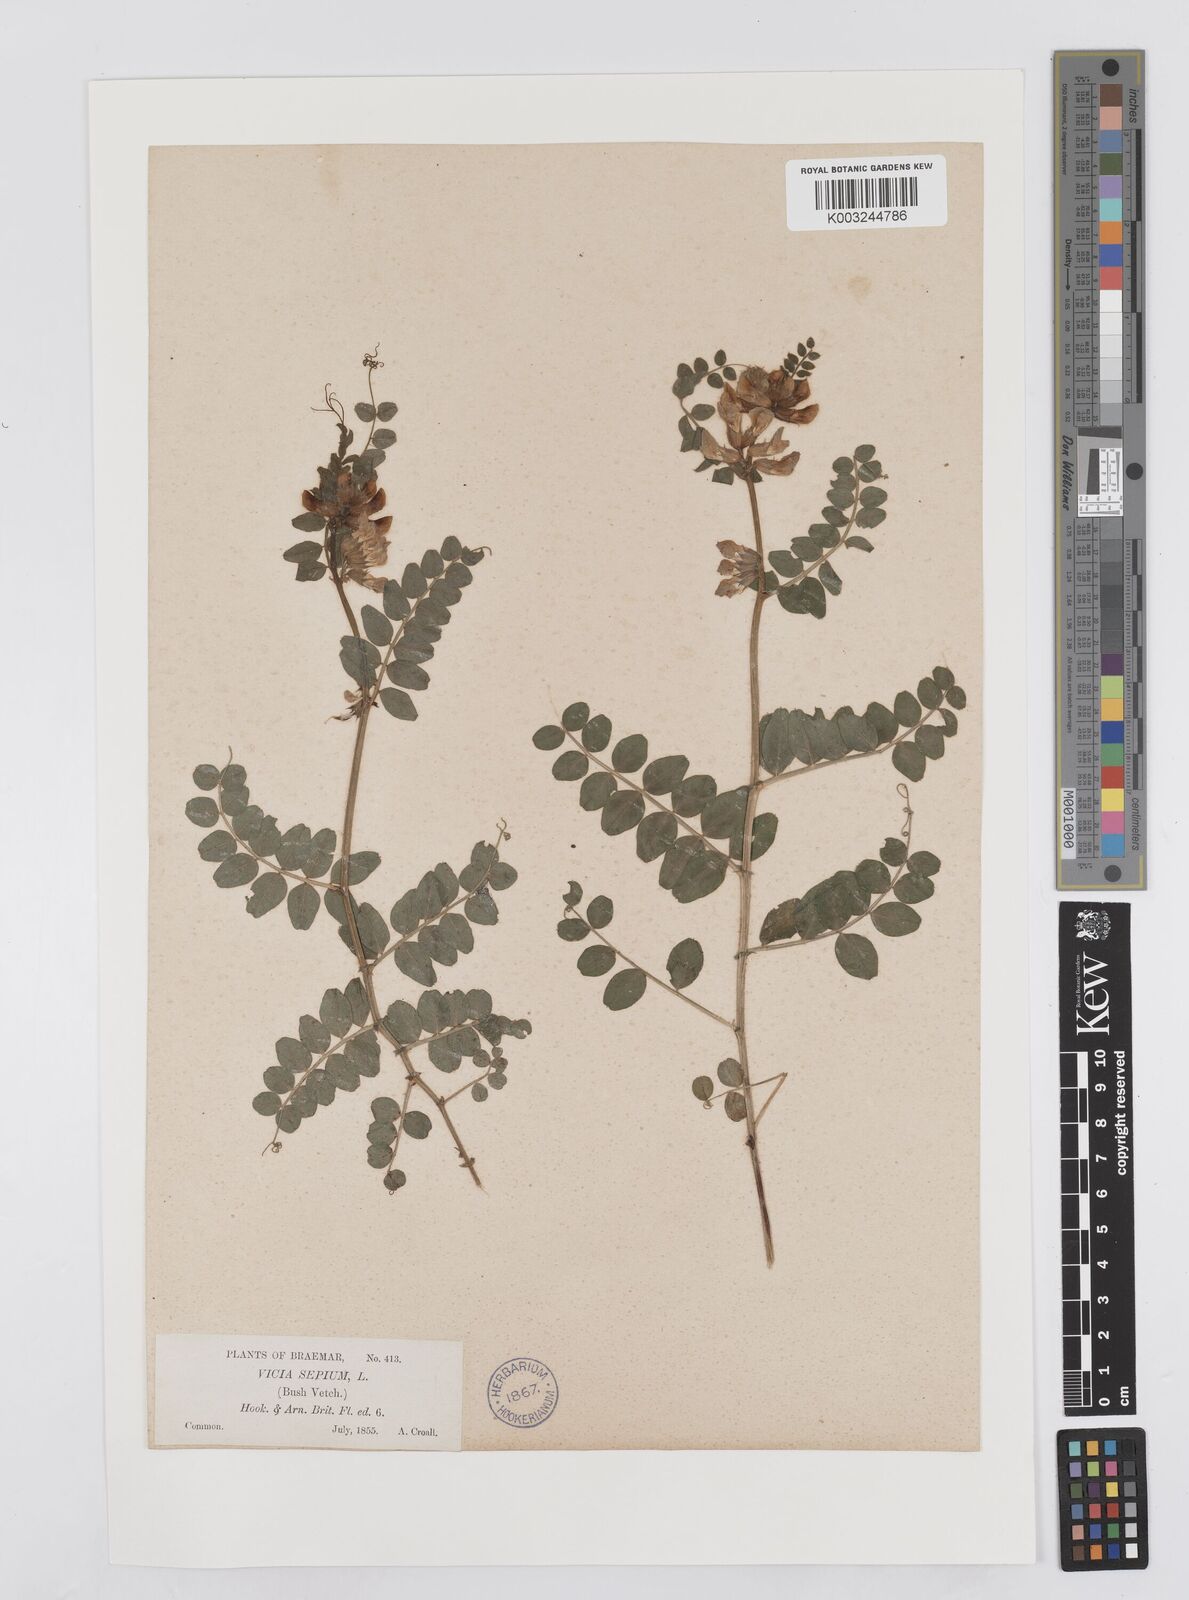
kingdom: Plantae
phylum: Tracheophyta
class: Magnoliopsida
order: Fabales
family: Fabaceae
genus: Vicia
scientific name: Vicia sepium
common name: Bush vetch
